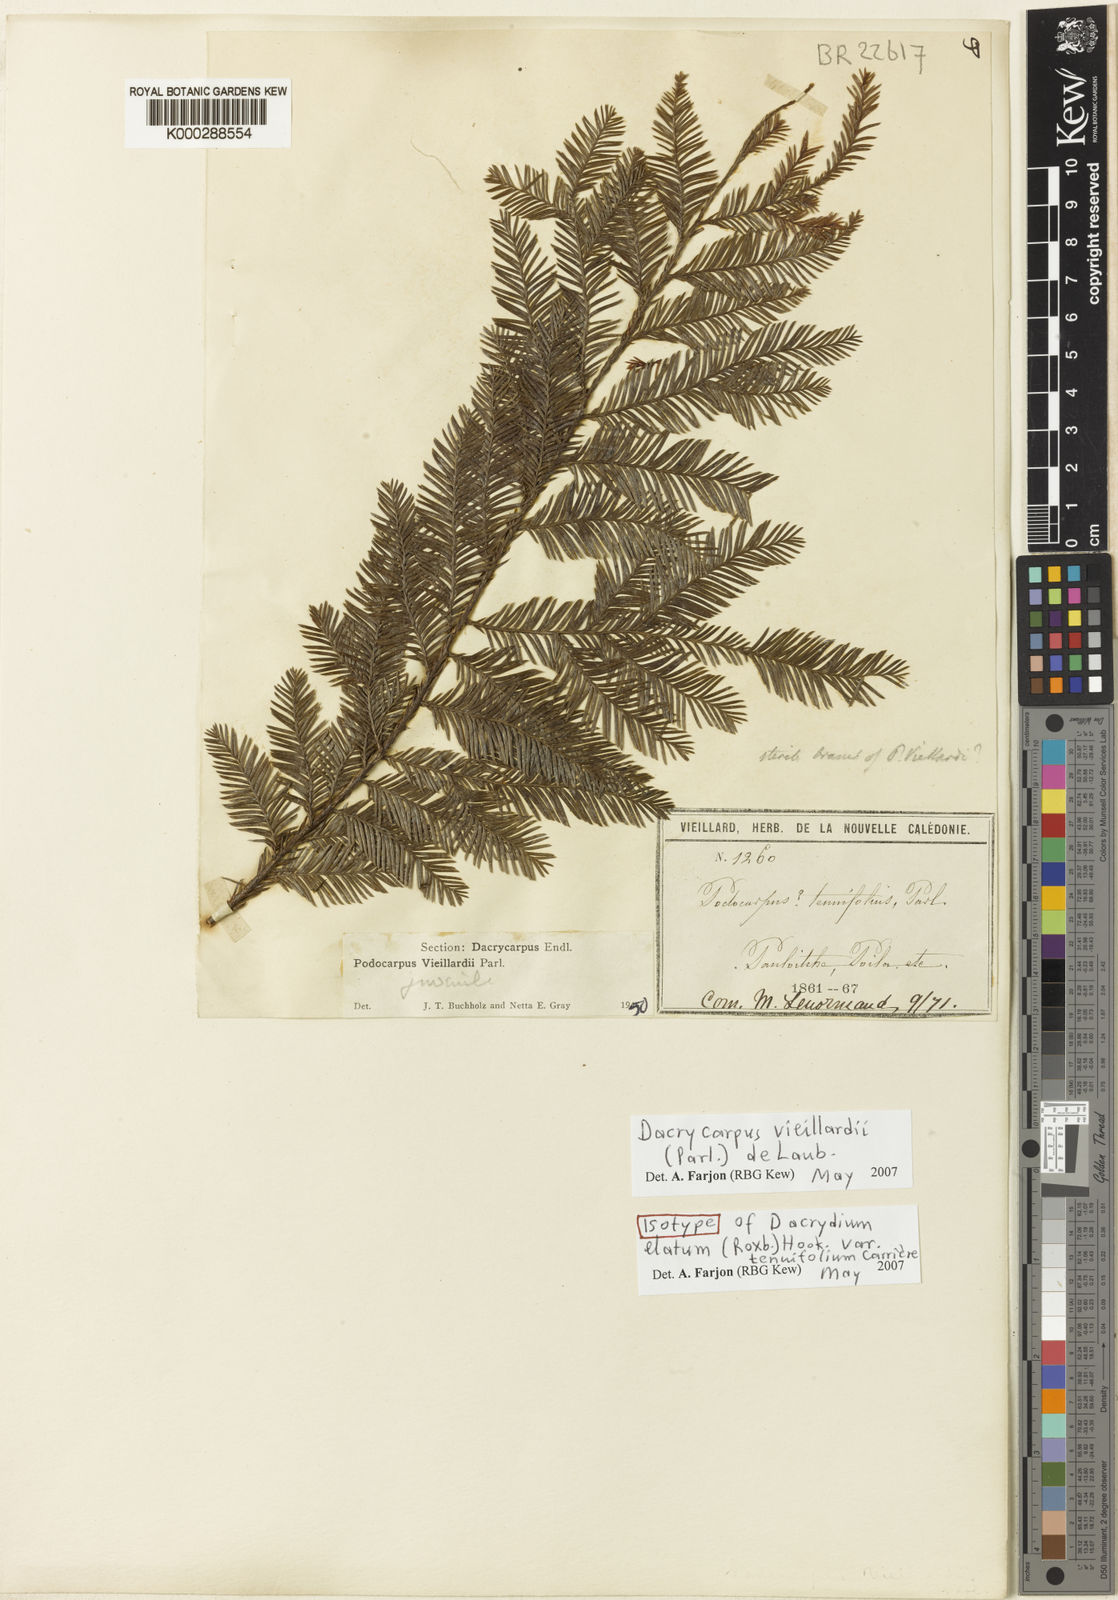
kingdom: Plantae
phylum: Tracheophyta
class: Pinopsida
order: Pinales
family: Podocarpaceae
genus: Dacrycarpus
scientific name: Dacrycarpus vieillardii
